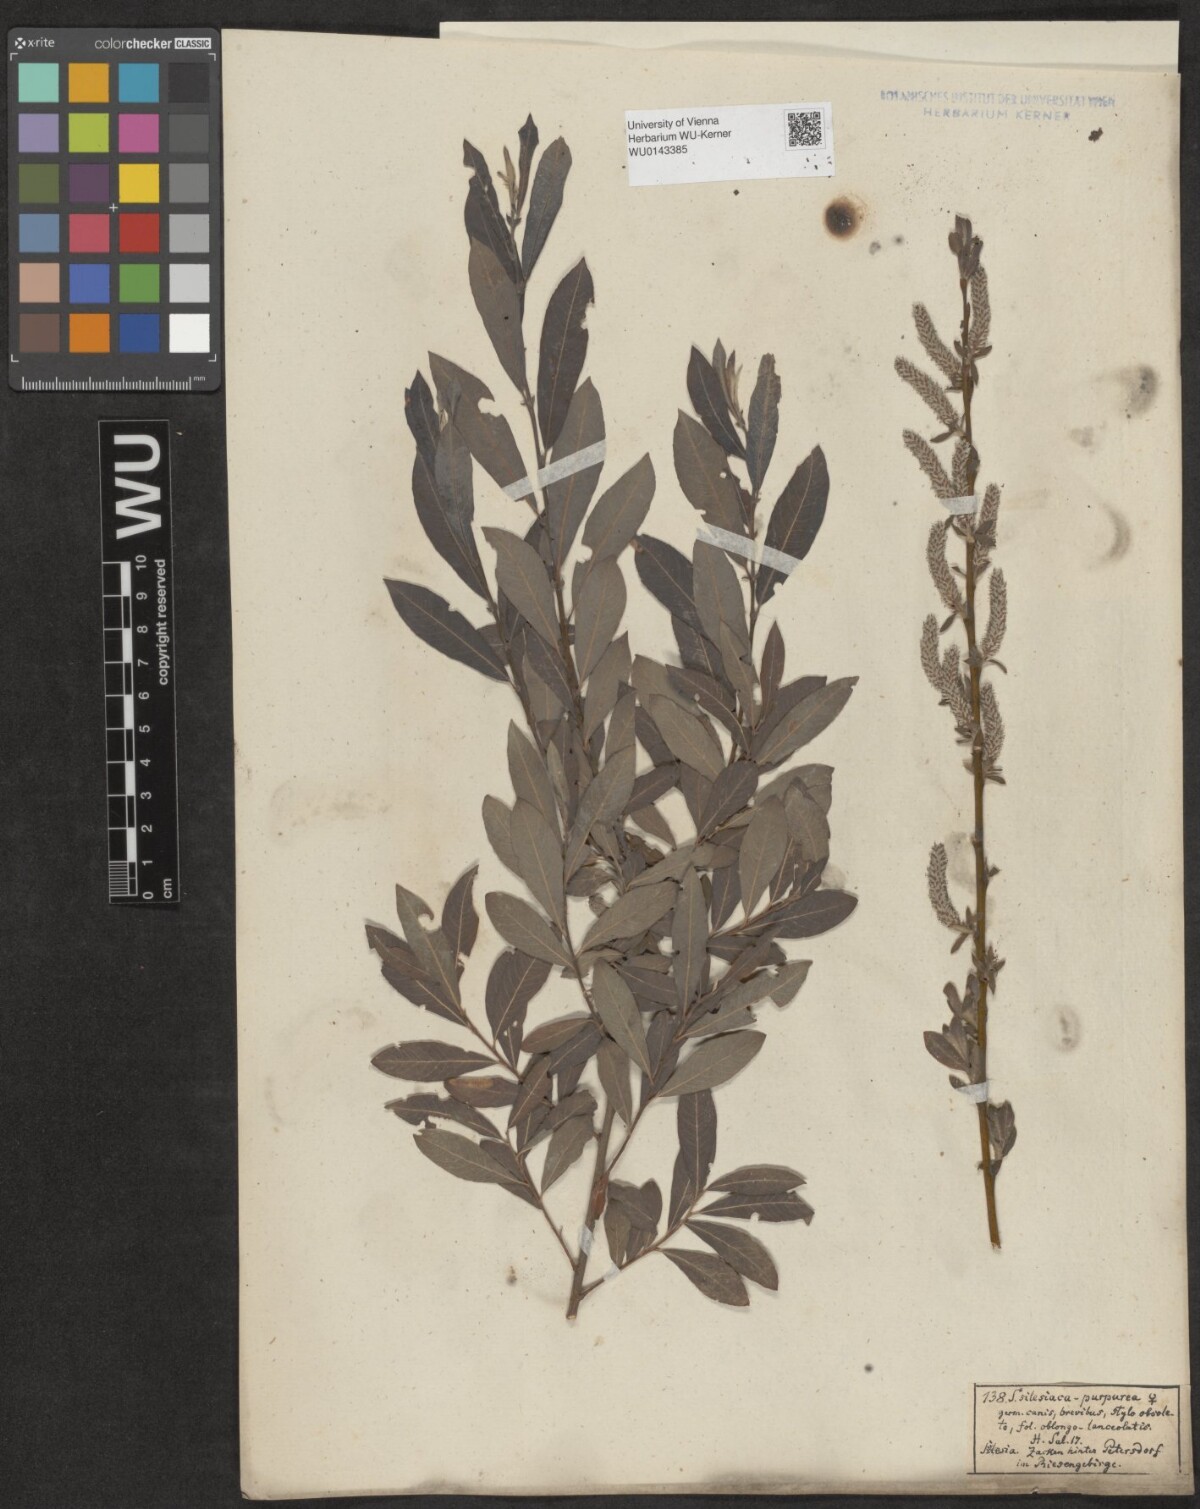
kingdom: Plantae
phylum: Tracheophyta
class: Magnoliopsida
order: Malpighiales
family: Salicaceae
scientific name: Salicaceae
